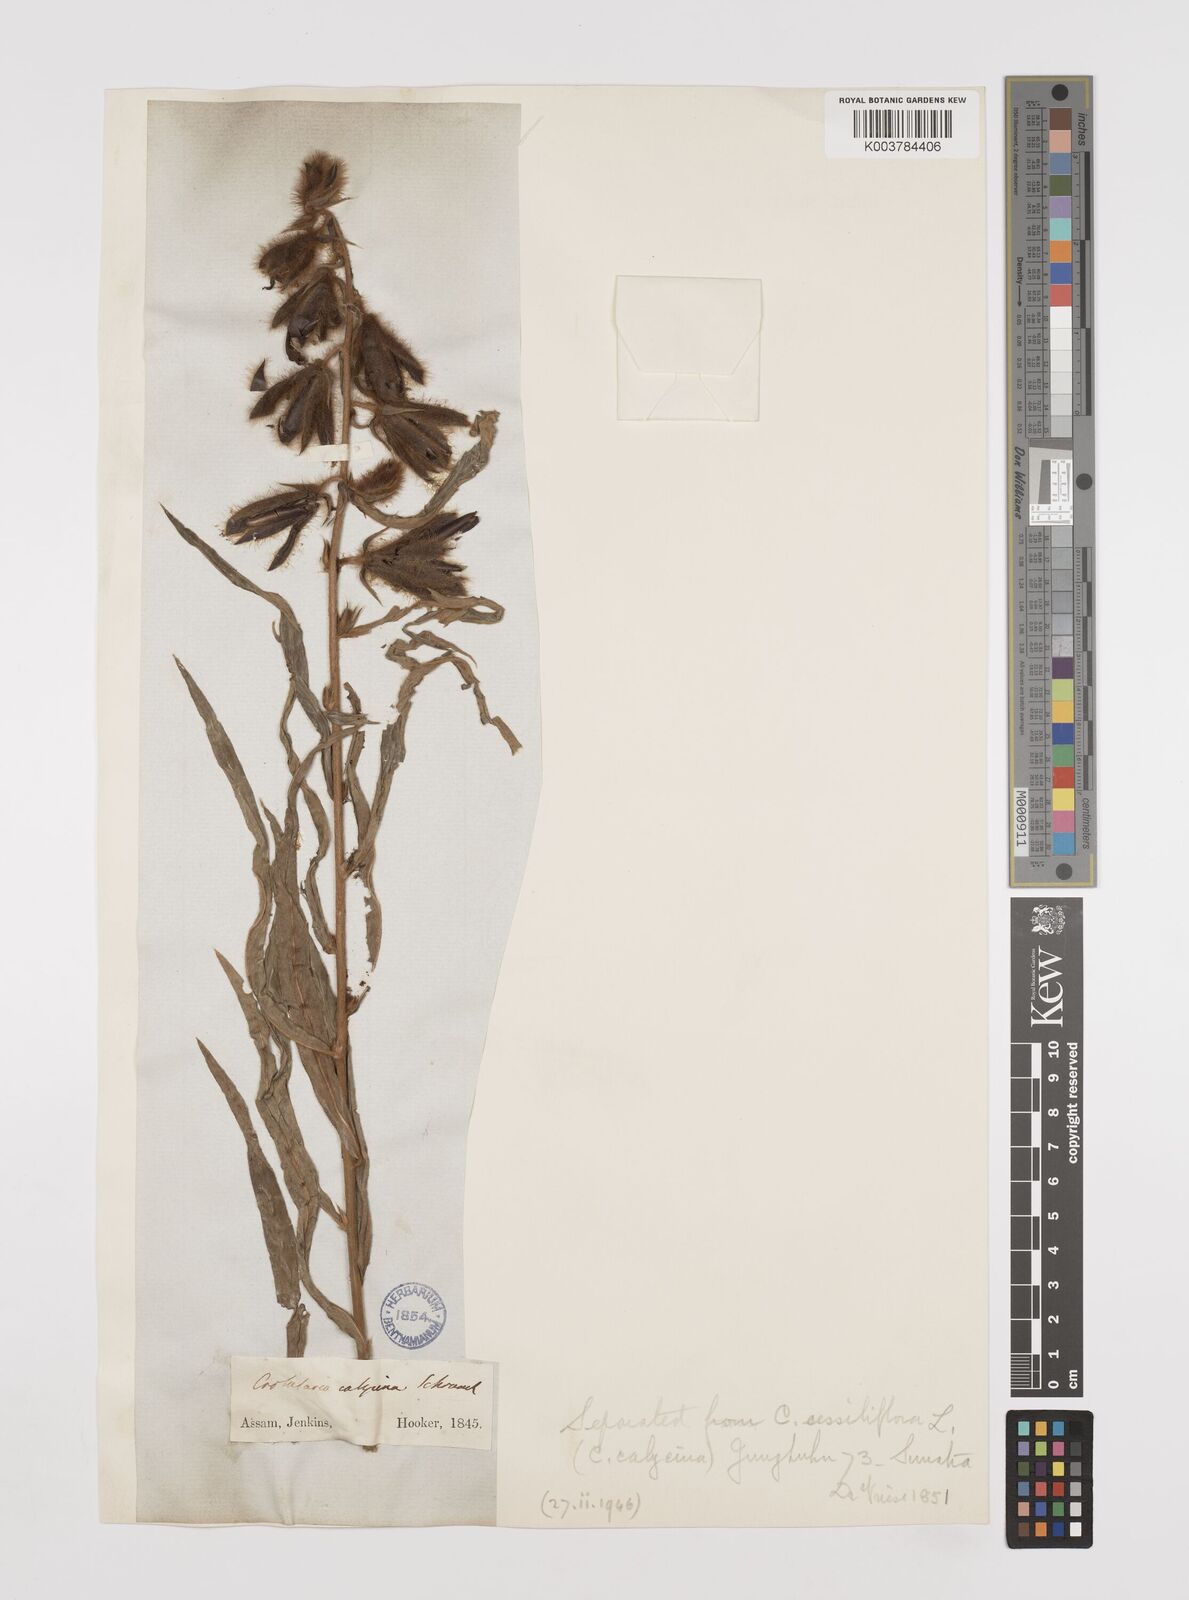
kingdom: Plantae
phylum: Tracheophyta
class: Magnoliopsida
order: Fabales
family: Fabaceae
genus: Crotalaria
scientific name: Crotalaria calycina
